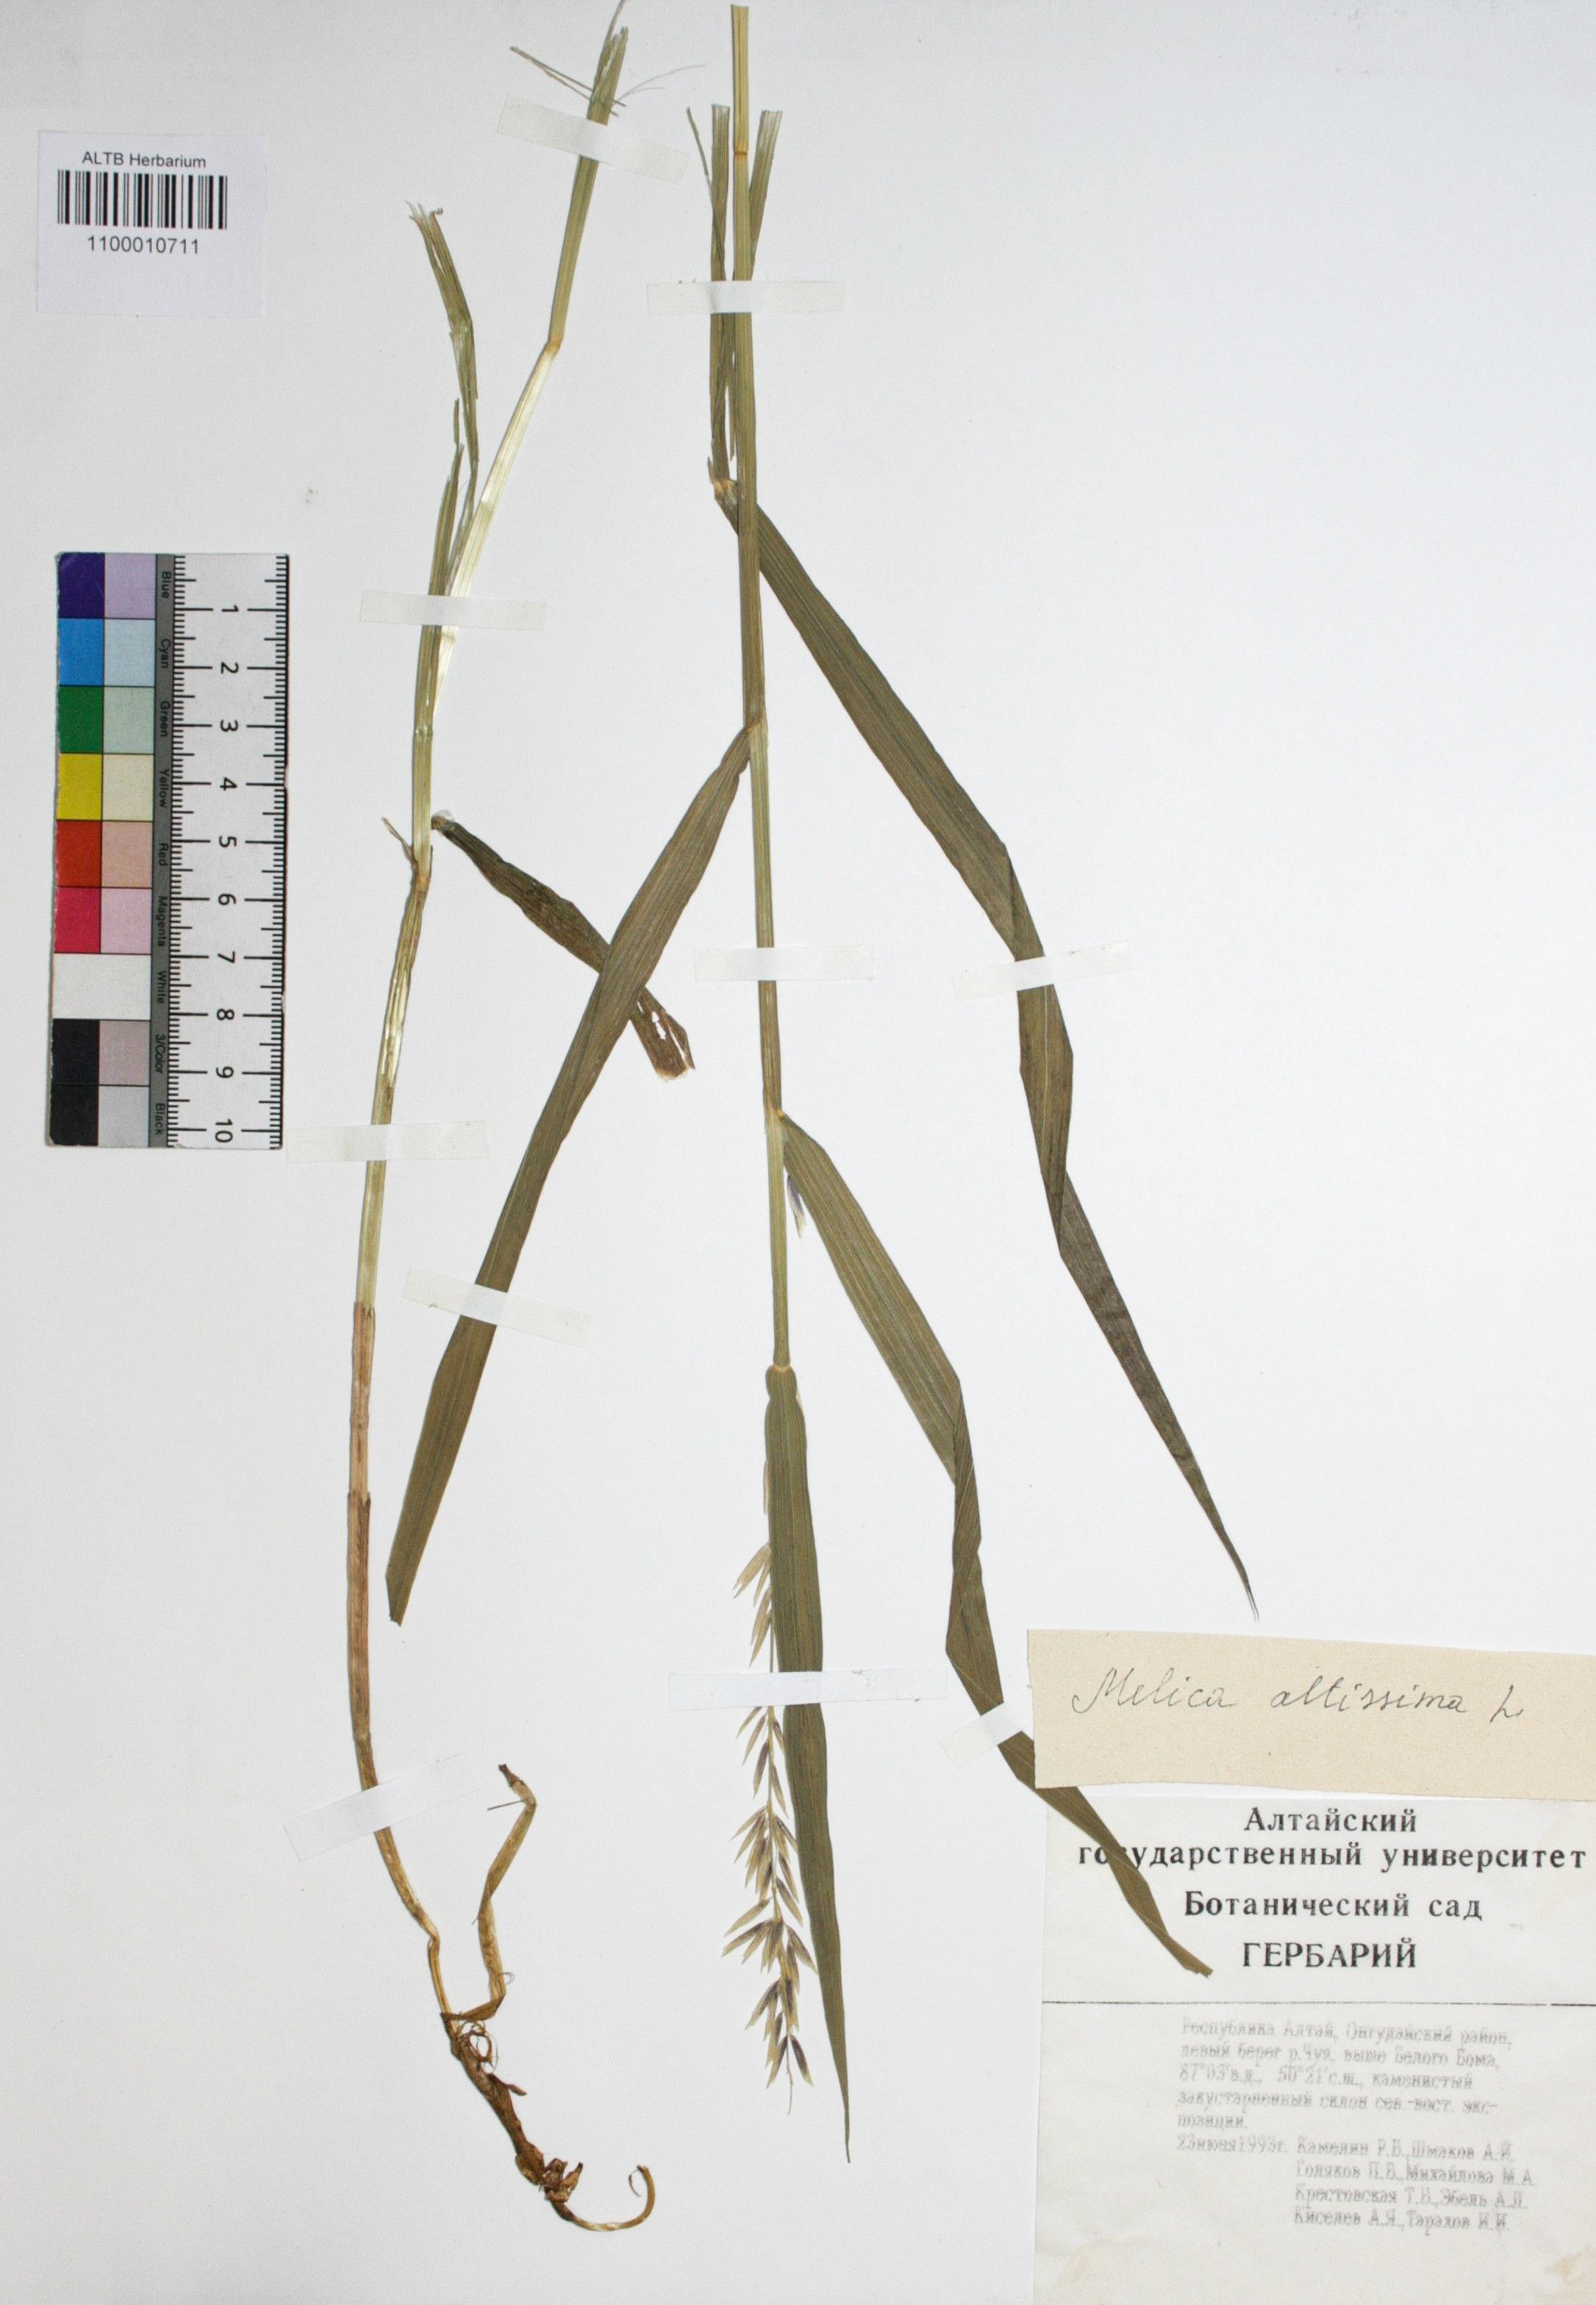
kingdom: Plantae
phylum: Tracheophyta
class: Liliopsida
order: Poales
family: Poaceae
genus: Melica
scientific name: Melica altissima
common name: Siberian melicgrass
